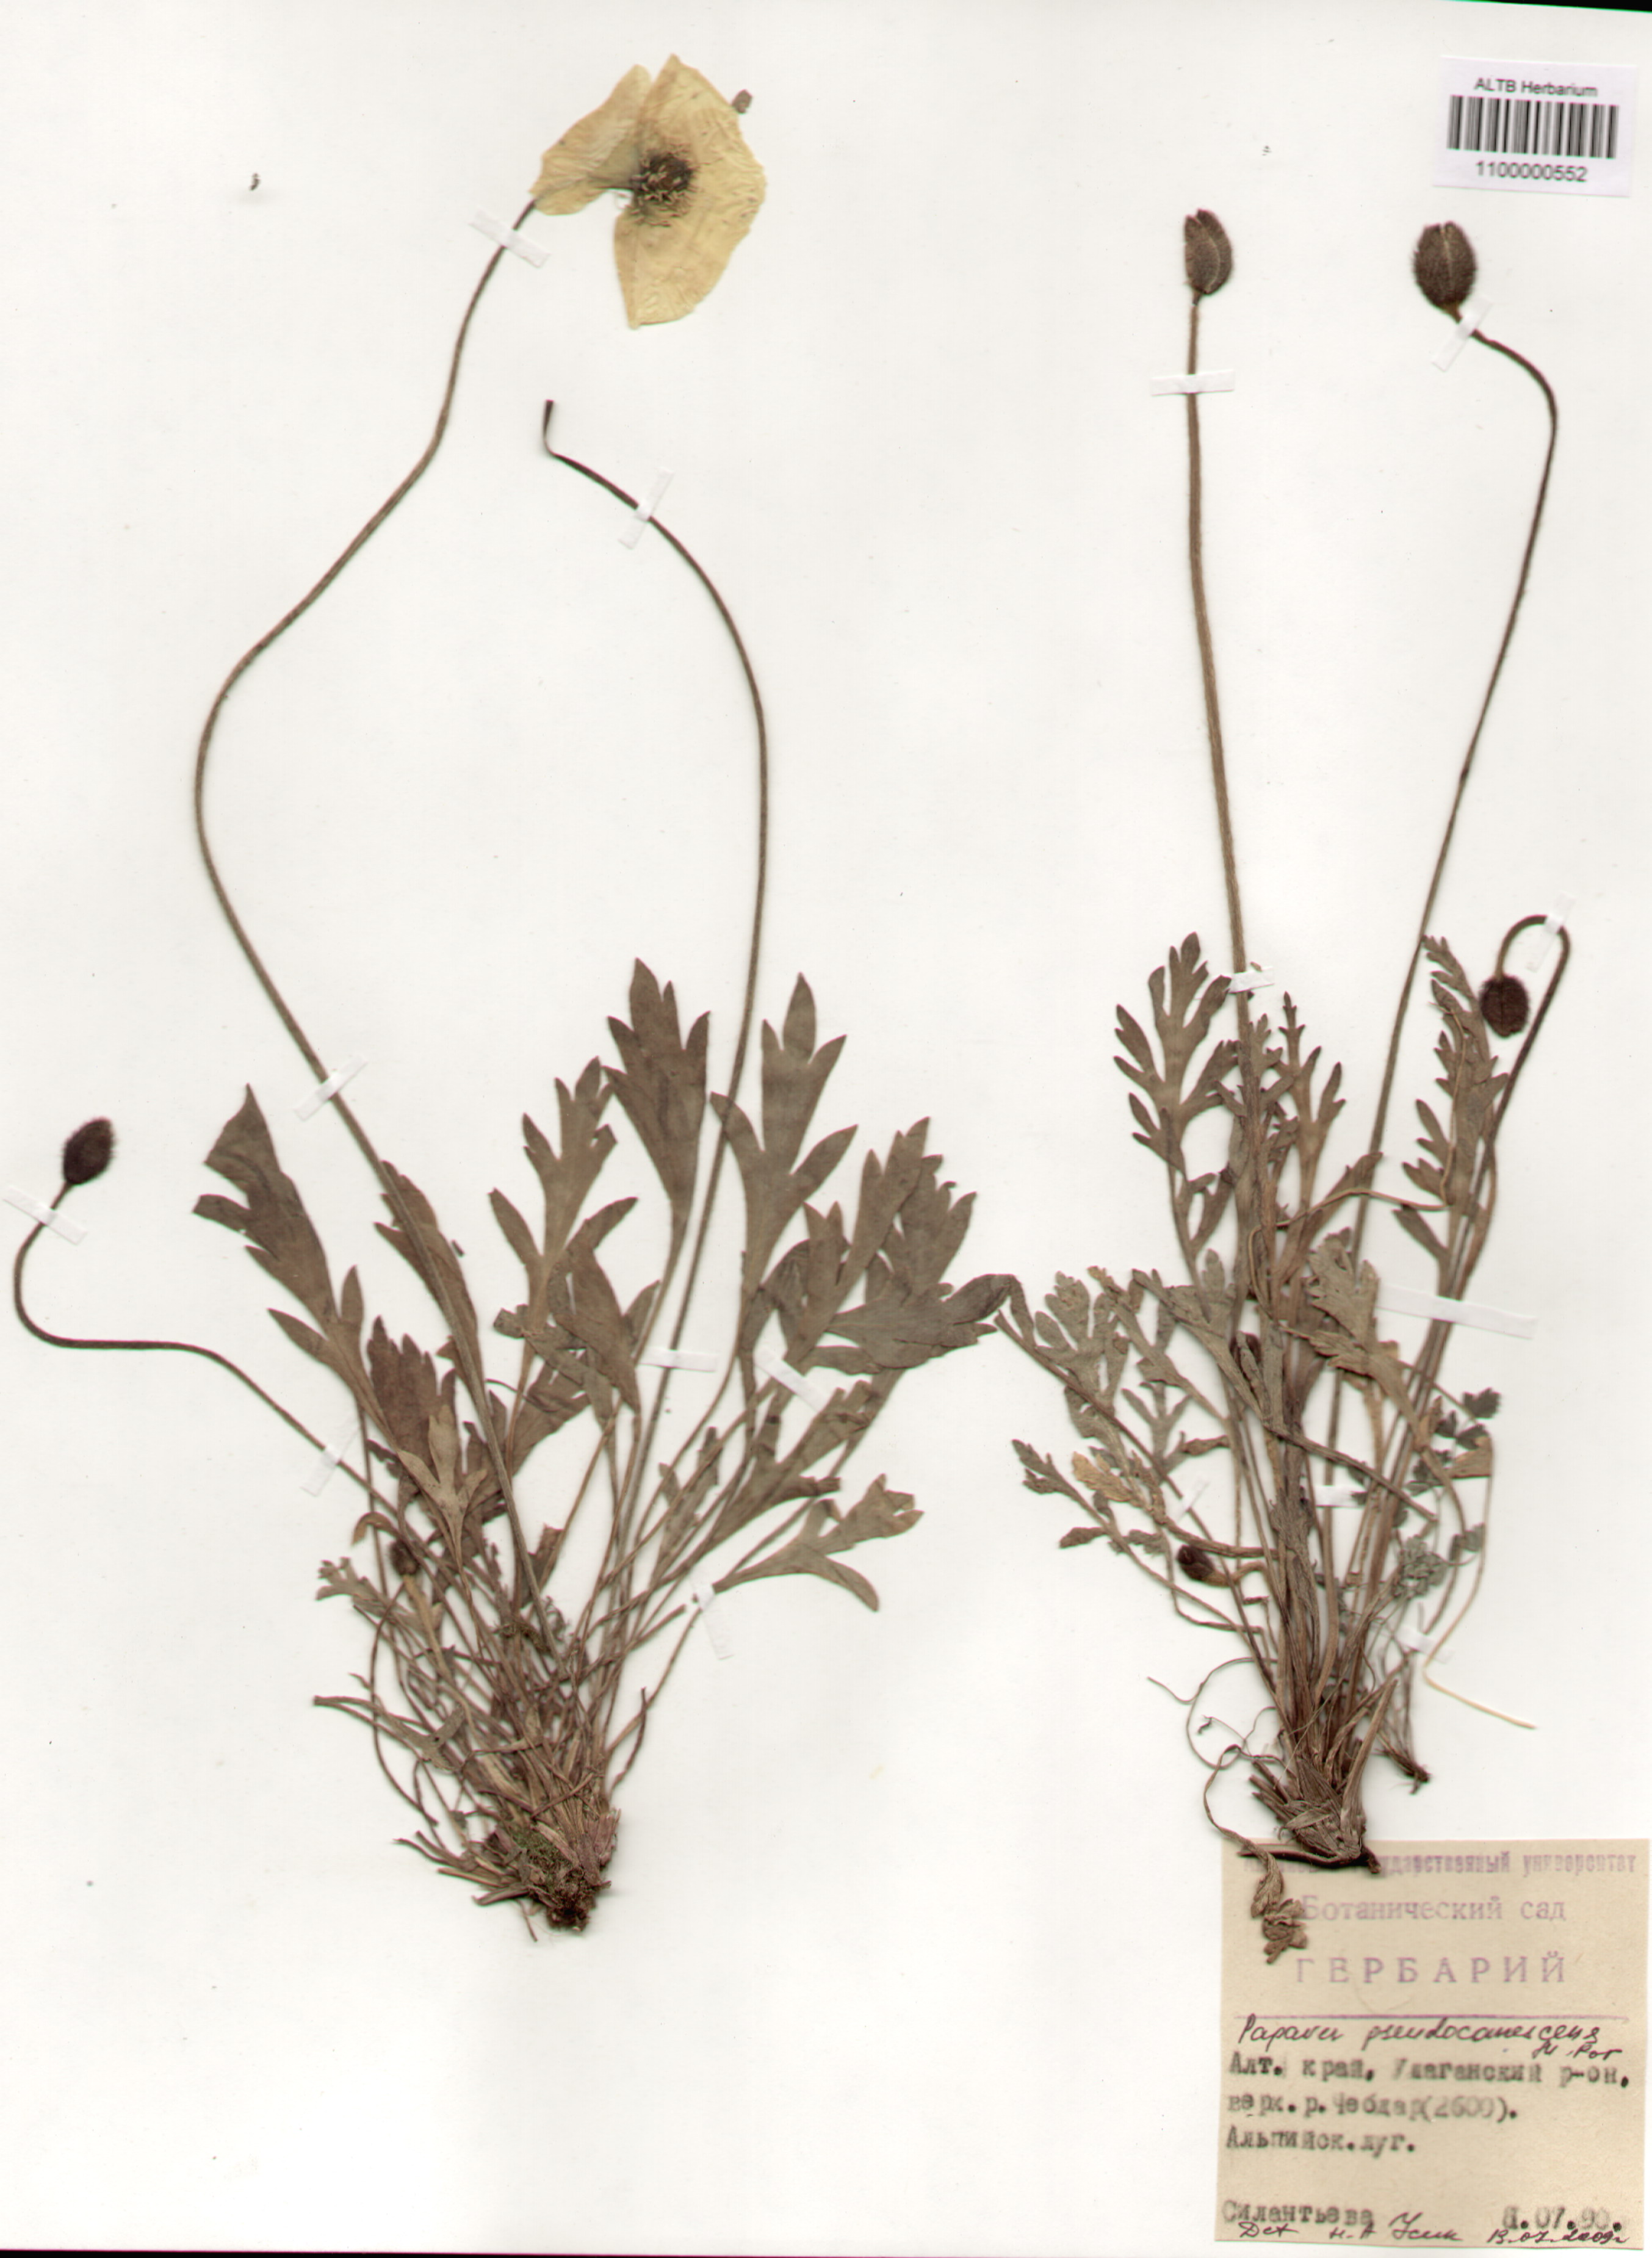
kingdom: Plantae
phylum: Tracheophyta
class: Magnoliopsida
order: Ranunculales
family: Papaveraceae
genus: Papaver
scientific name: Papaver canescens
